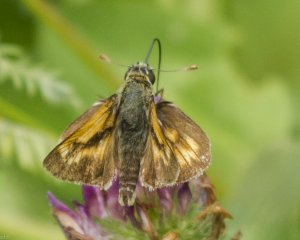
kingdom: Animalia
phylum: Arthropoda
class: Insecta
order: Lepidoptera
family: Hesperiidae
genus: Polites
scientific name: Polites
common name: Long Dash Skipper
